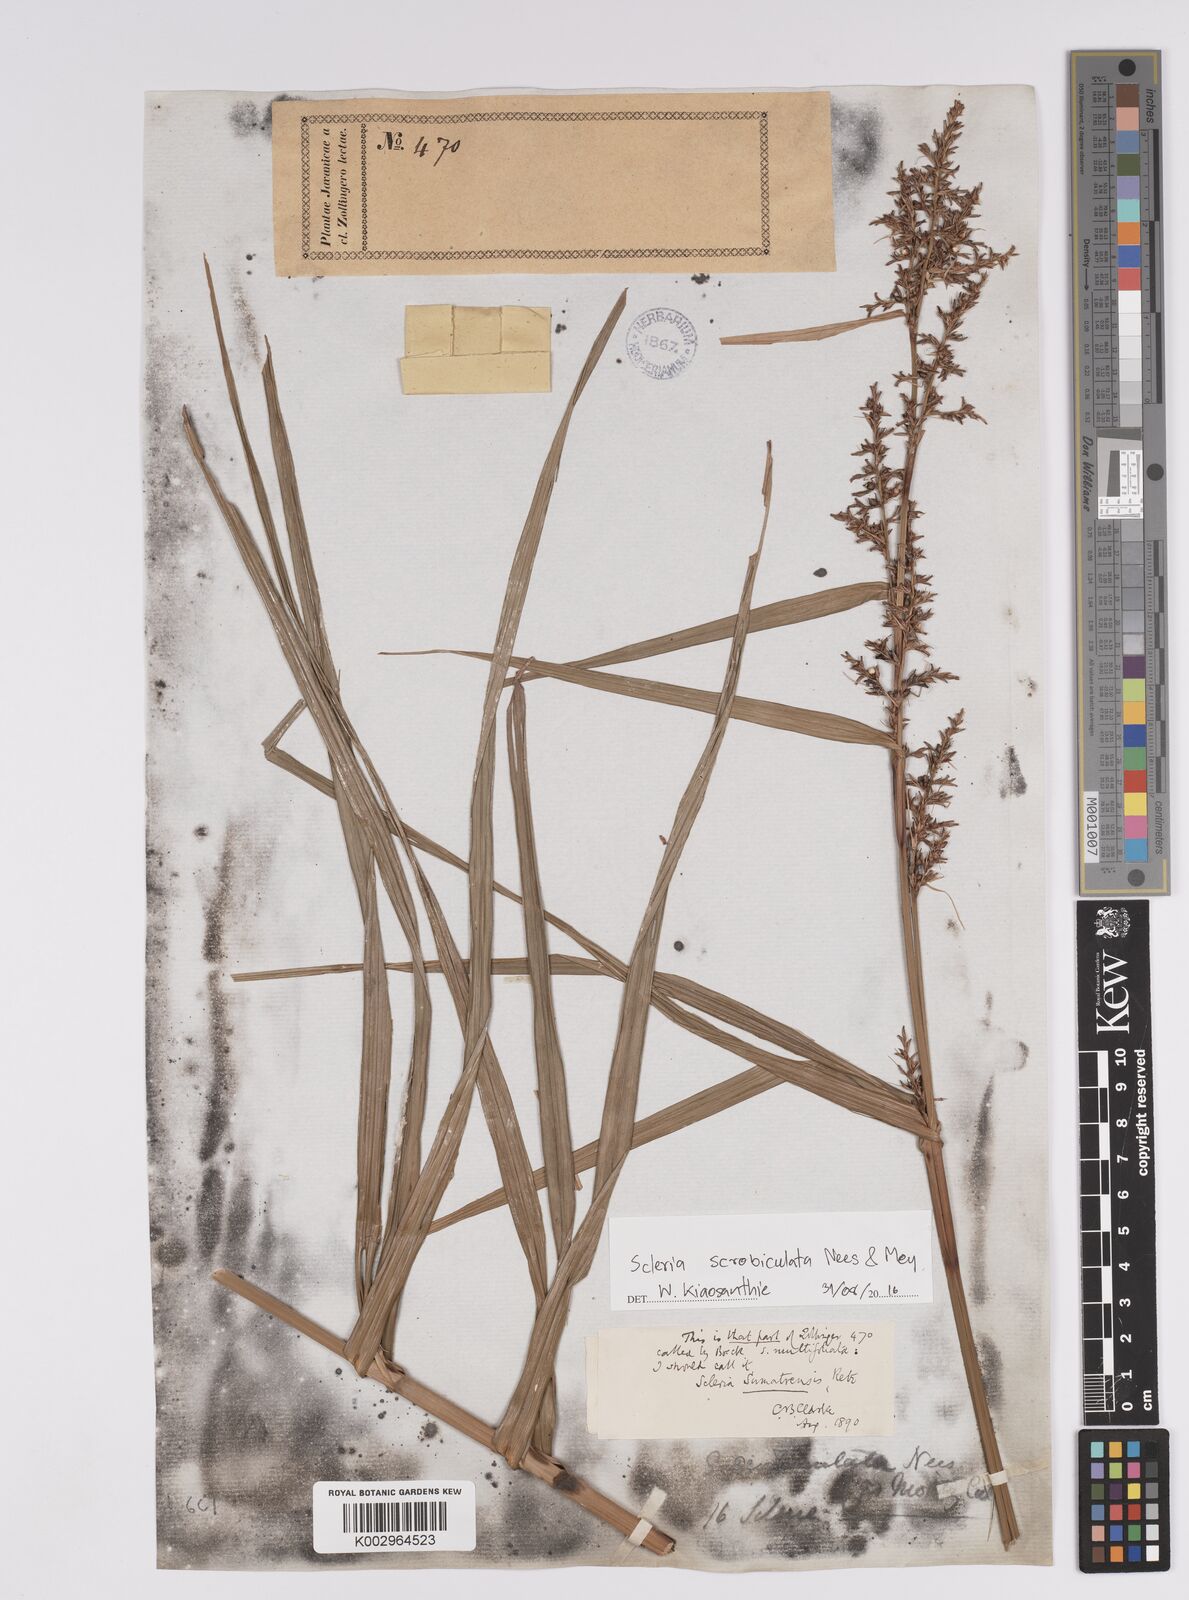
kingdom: Plantae
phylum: Tracheophyta
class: Liliopsida
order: Poales
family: Cyperaceae
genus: Scleria
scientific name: Scleria scrobiculata
